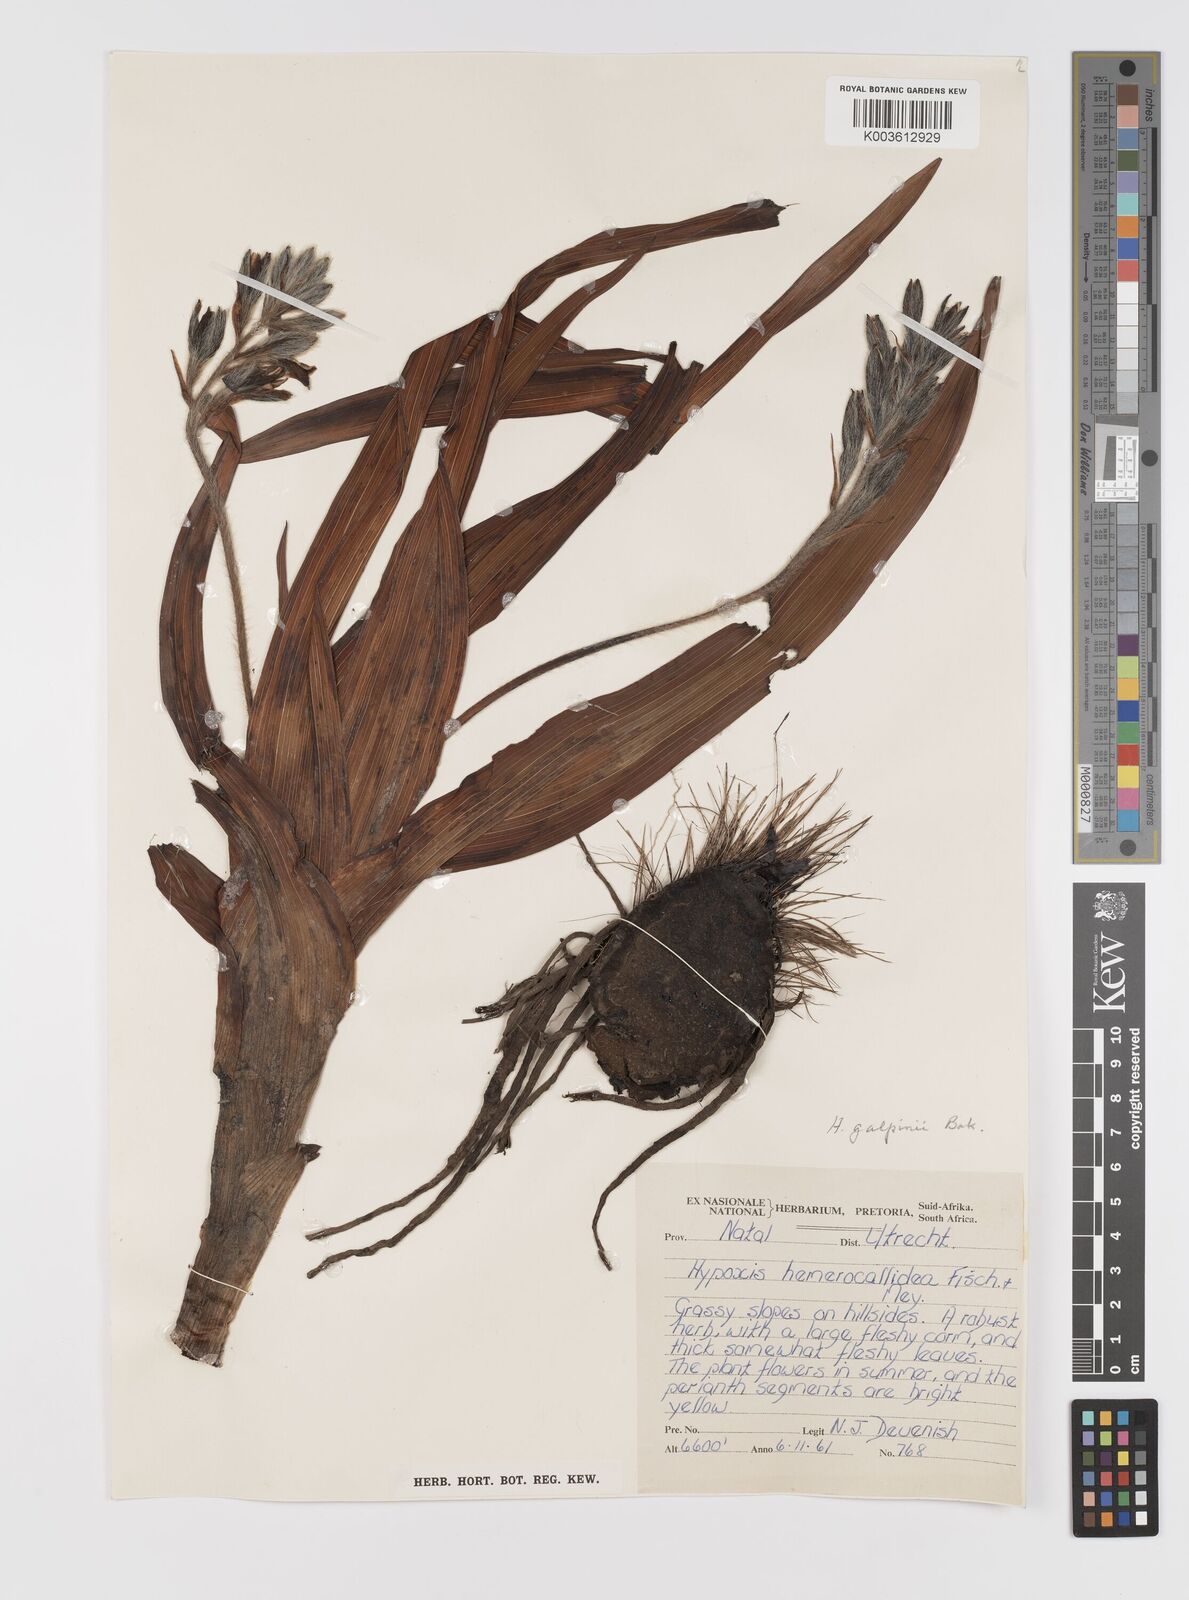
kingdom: Plantae
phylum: Tracheophyta
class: Liliopsida
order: Asparagales
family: Hypoxidaceae
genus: Hypoxis
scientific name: Hypoxis galpinii
